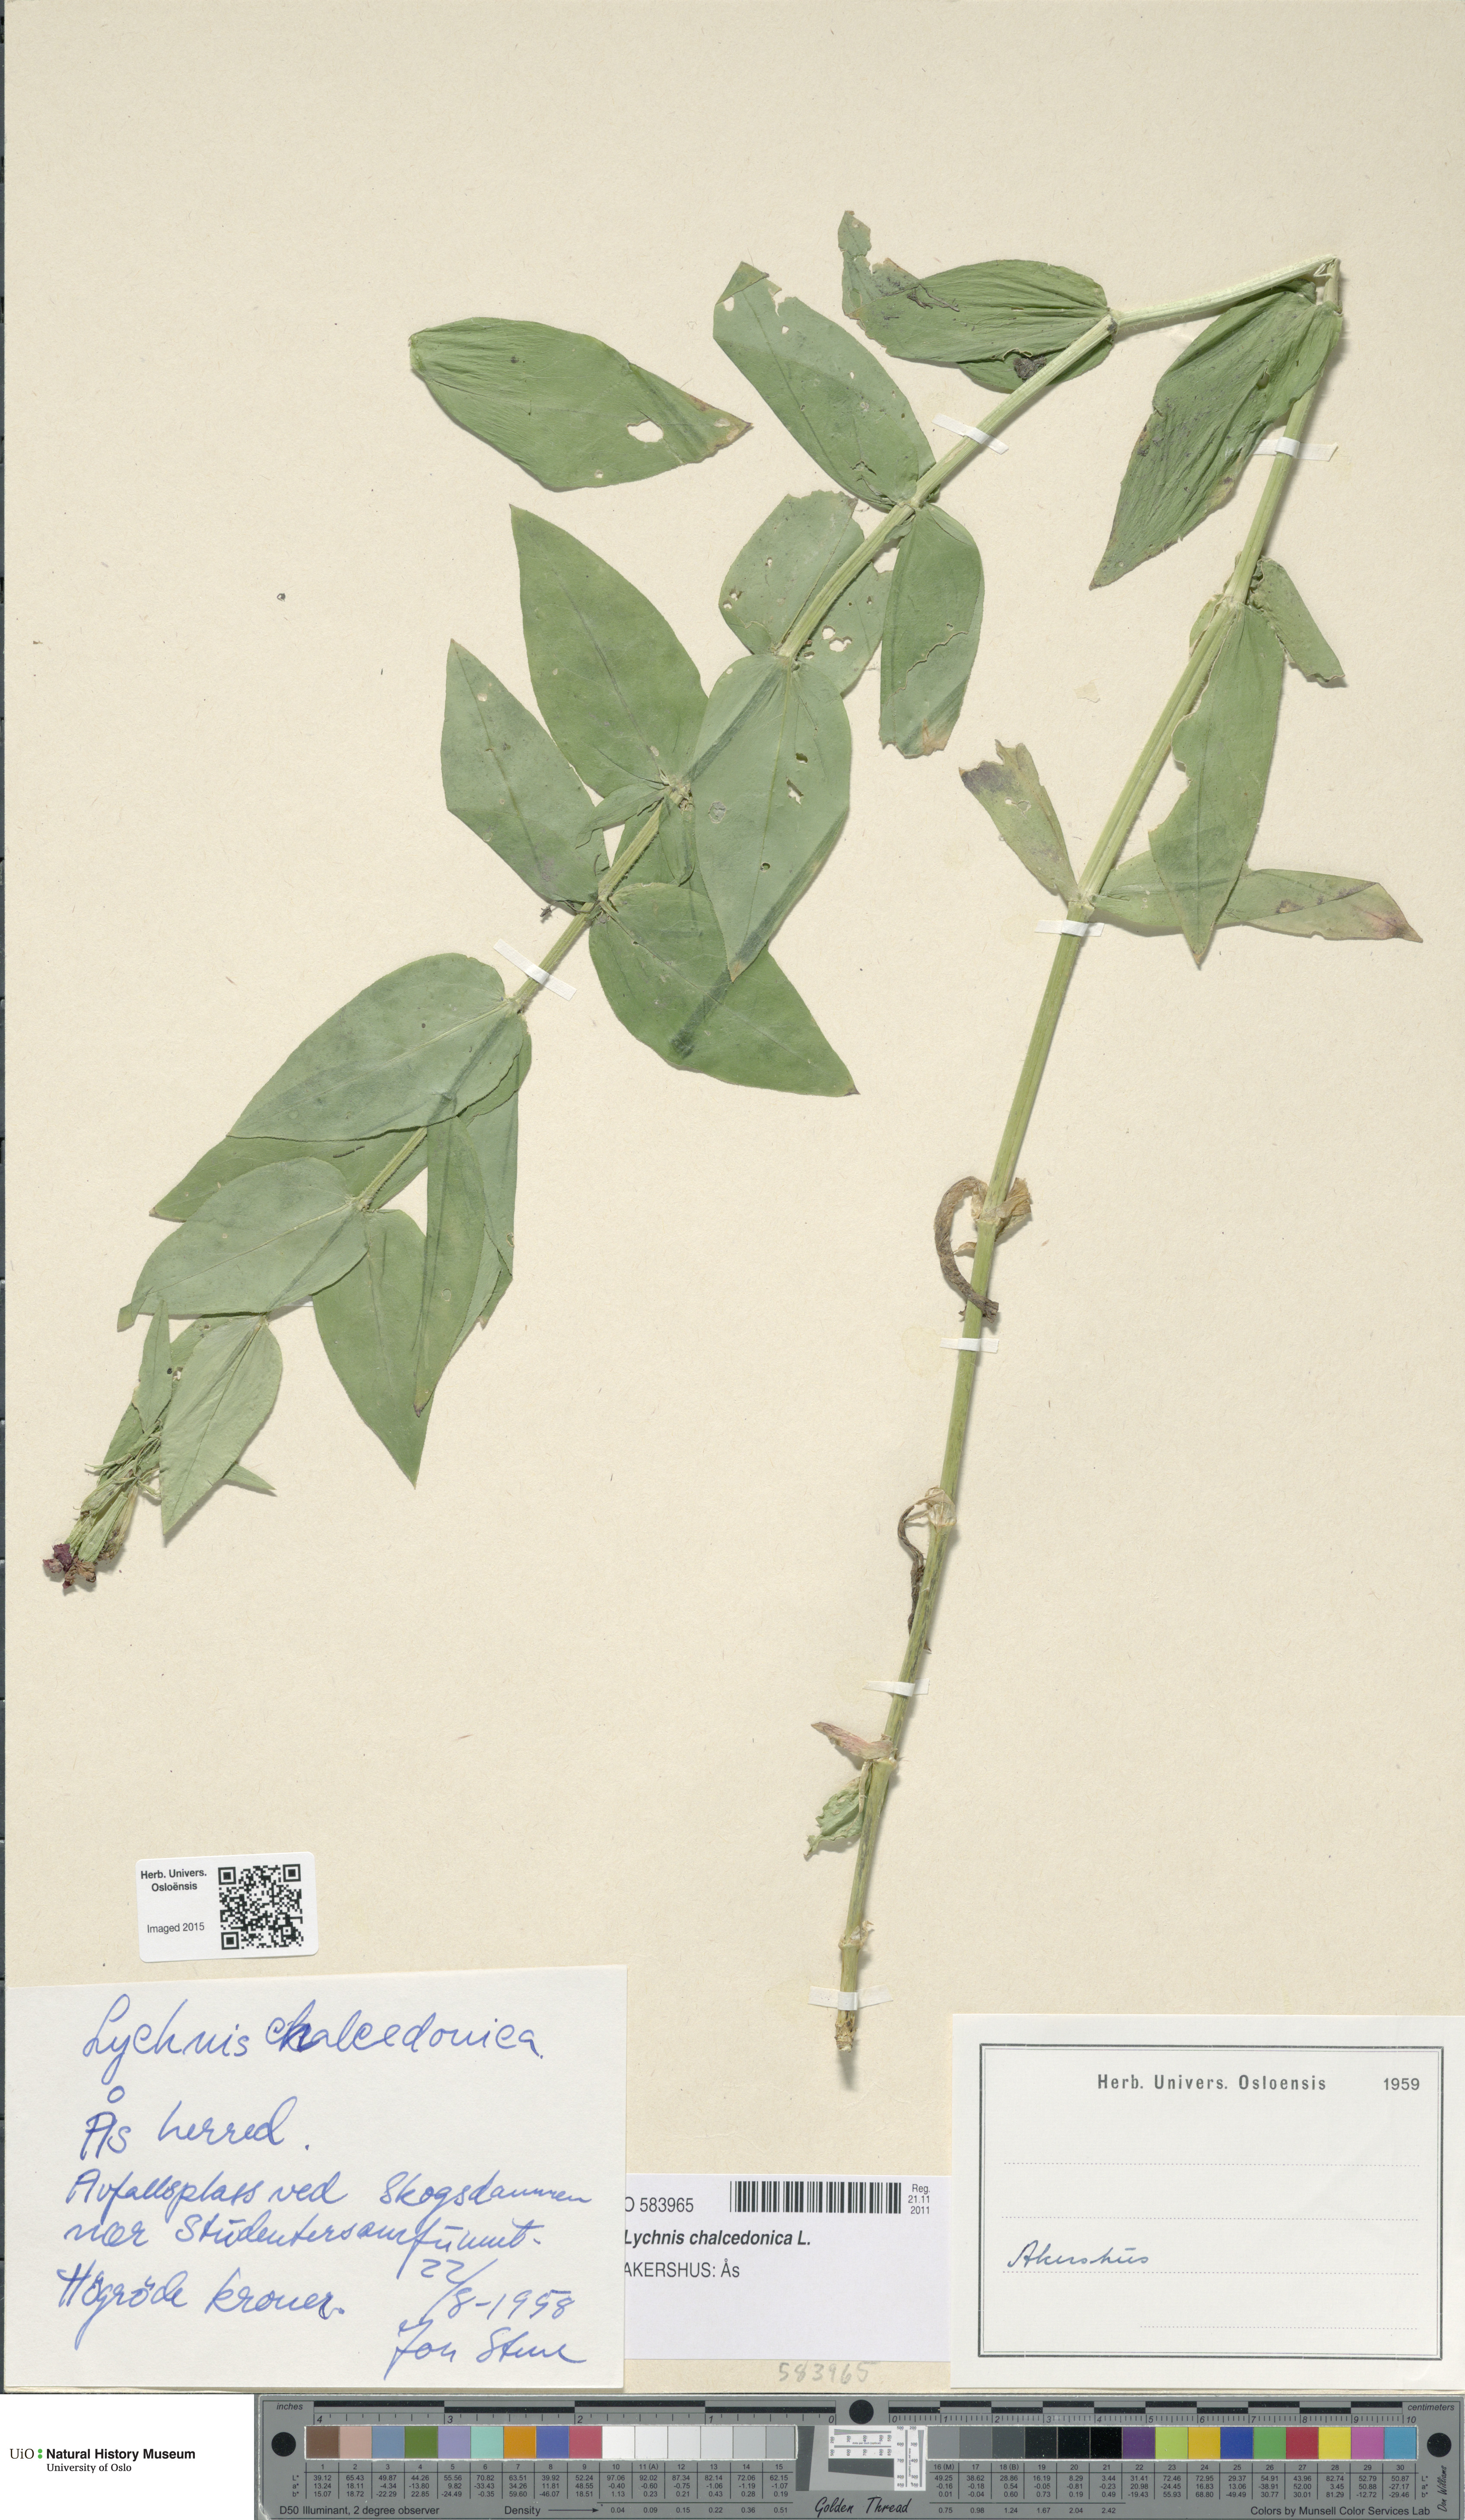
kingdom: Plantae
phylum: Tracheophyta
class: Magnoliopsida
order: Caryophyllales
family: Caryophyllaceae
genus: Silene
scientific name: Silene chalcedonica
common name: Maltese-cross
